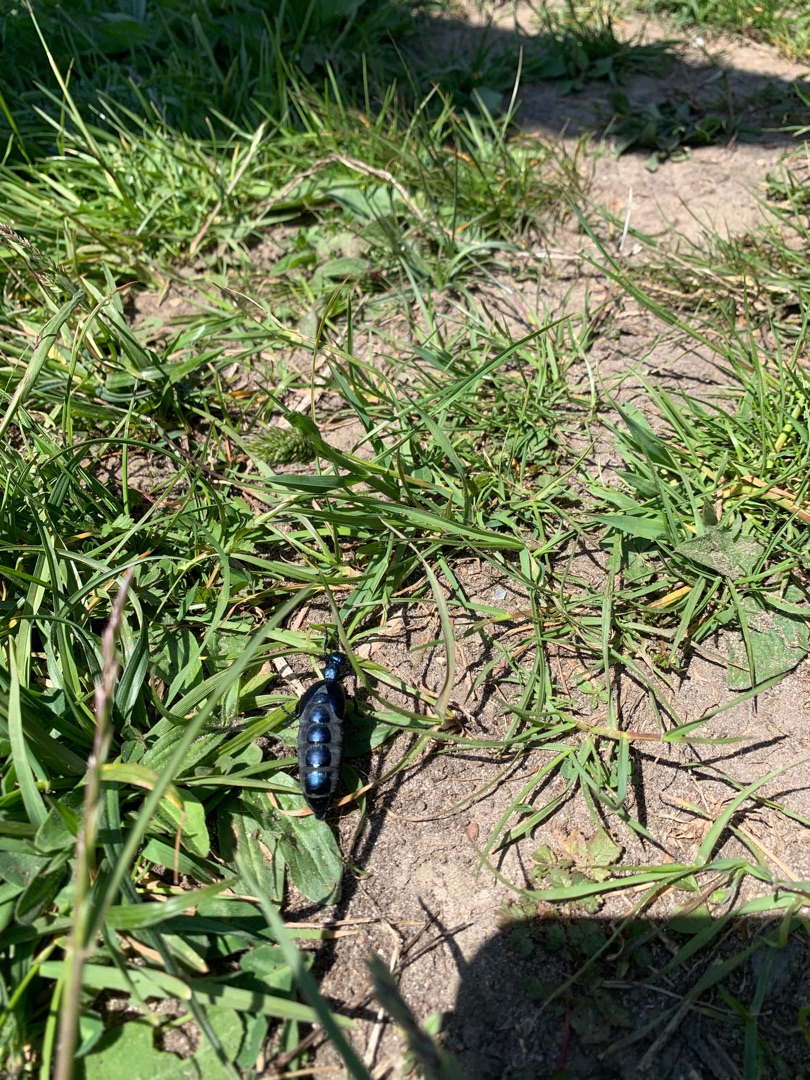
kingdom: Animalia
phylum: Arthropoda
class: Insecta
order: Coleoptera
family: Meloidae
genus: Meloe
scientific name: Meloe violaceus
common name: Blå oliebille
